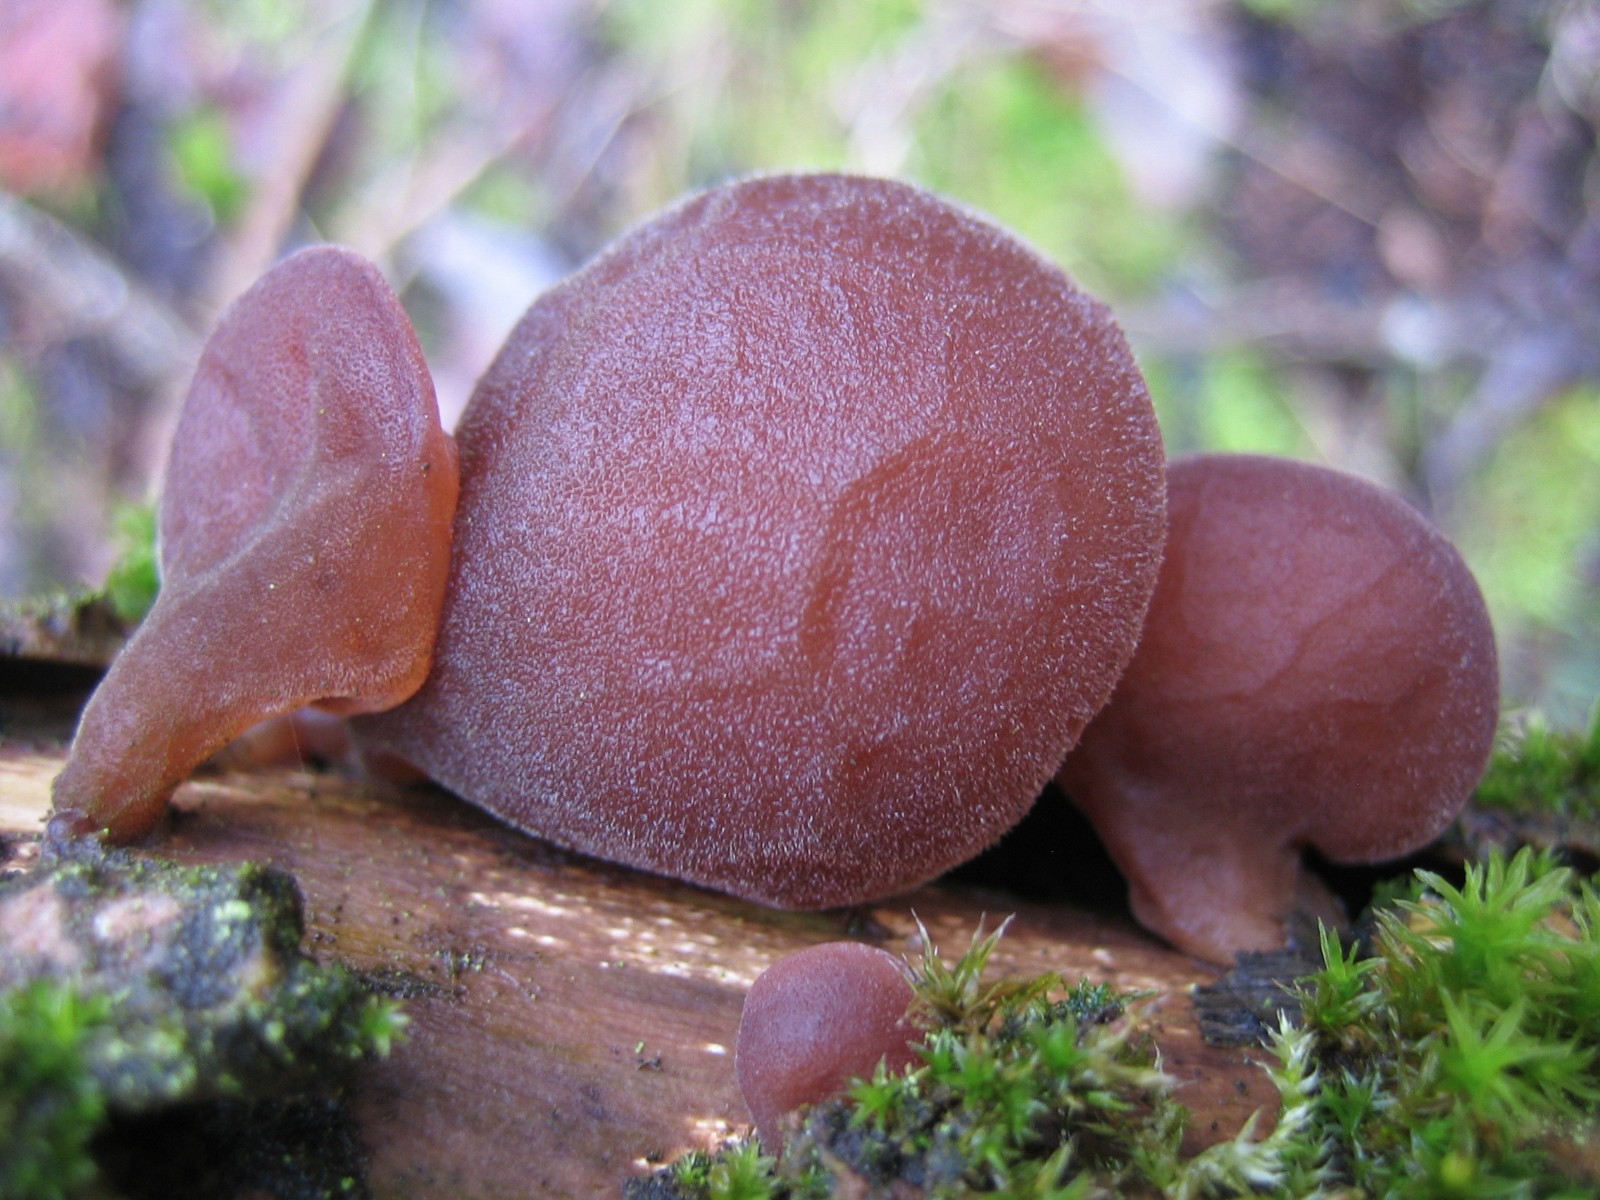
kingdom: Fungi
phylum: Basidiomycota
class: Agaricomycetes
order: Auriculariales
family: Auriculariaceae
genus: Auricularia
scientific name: Auricularia auricula-judae
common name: almindelig judasøre
